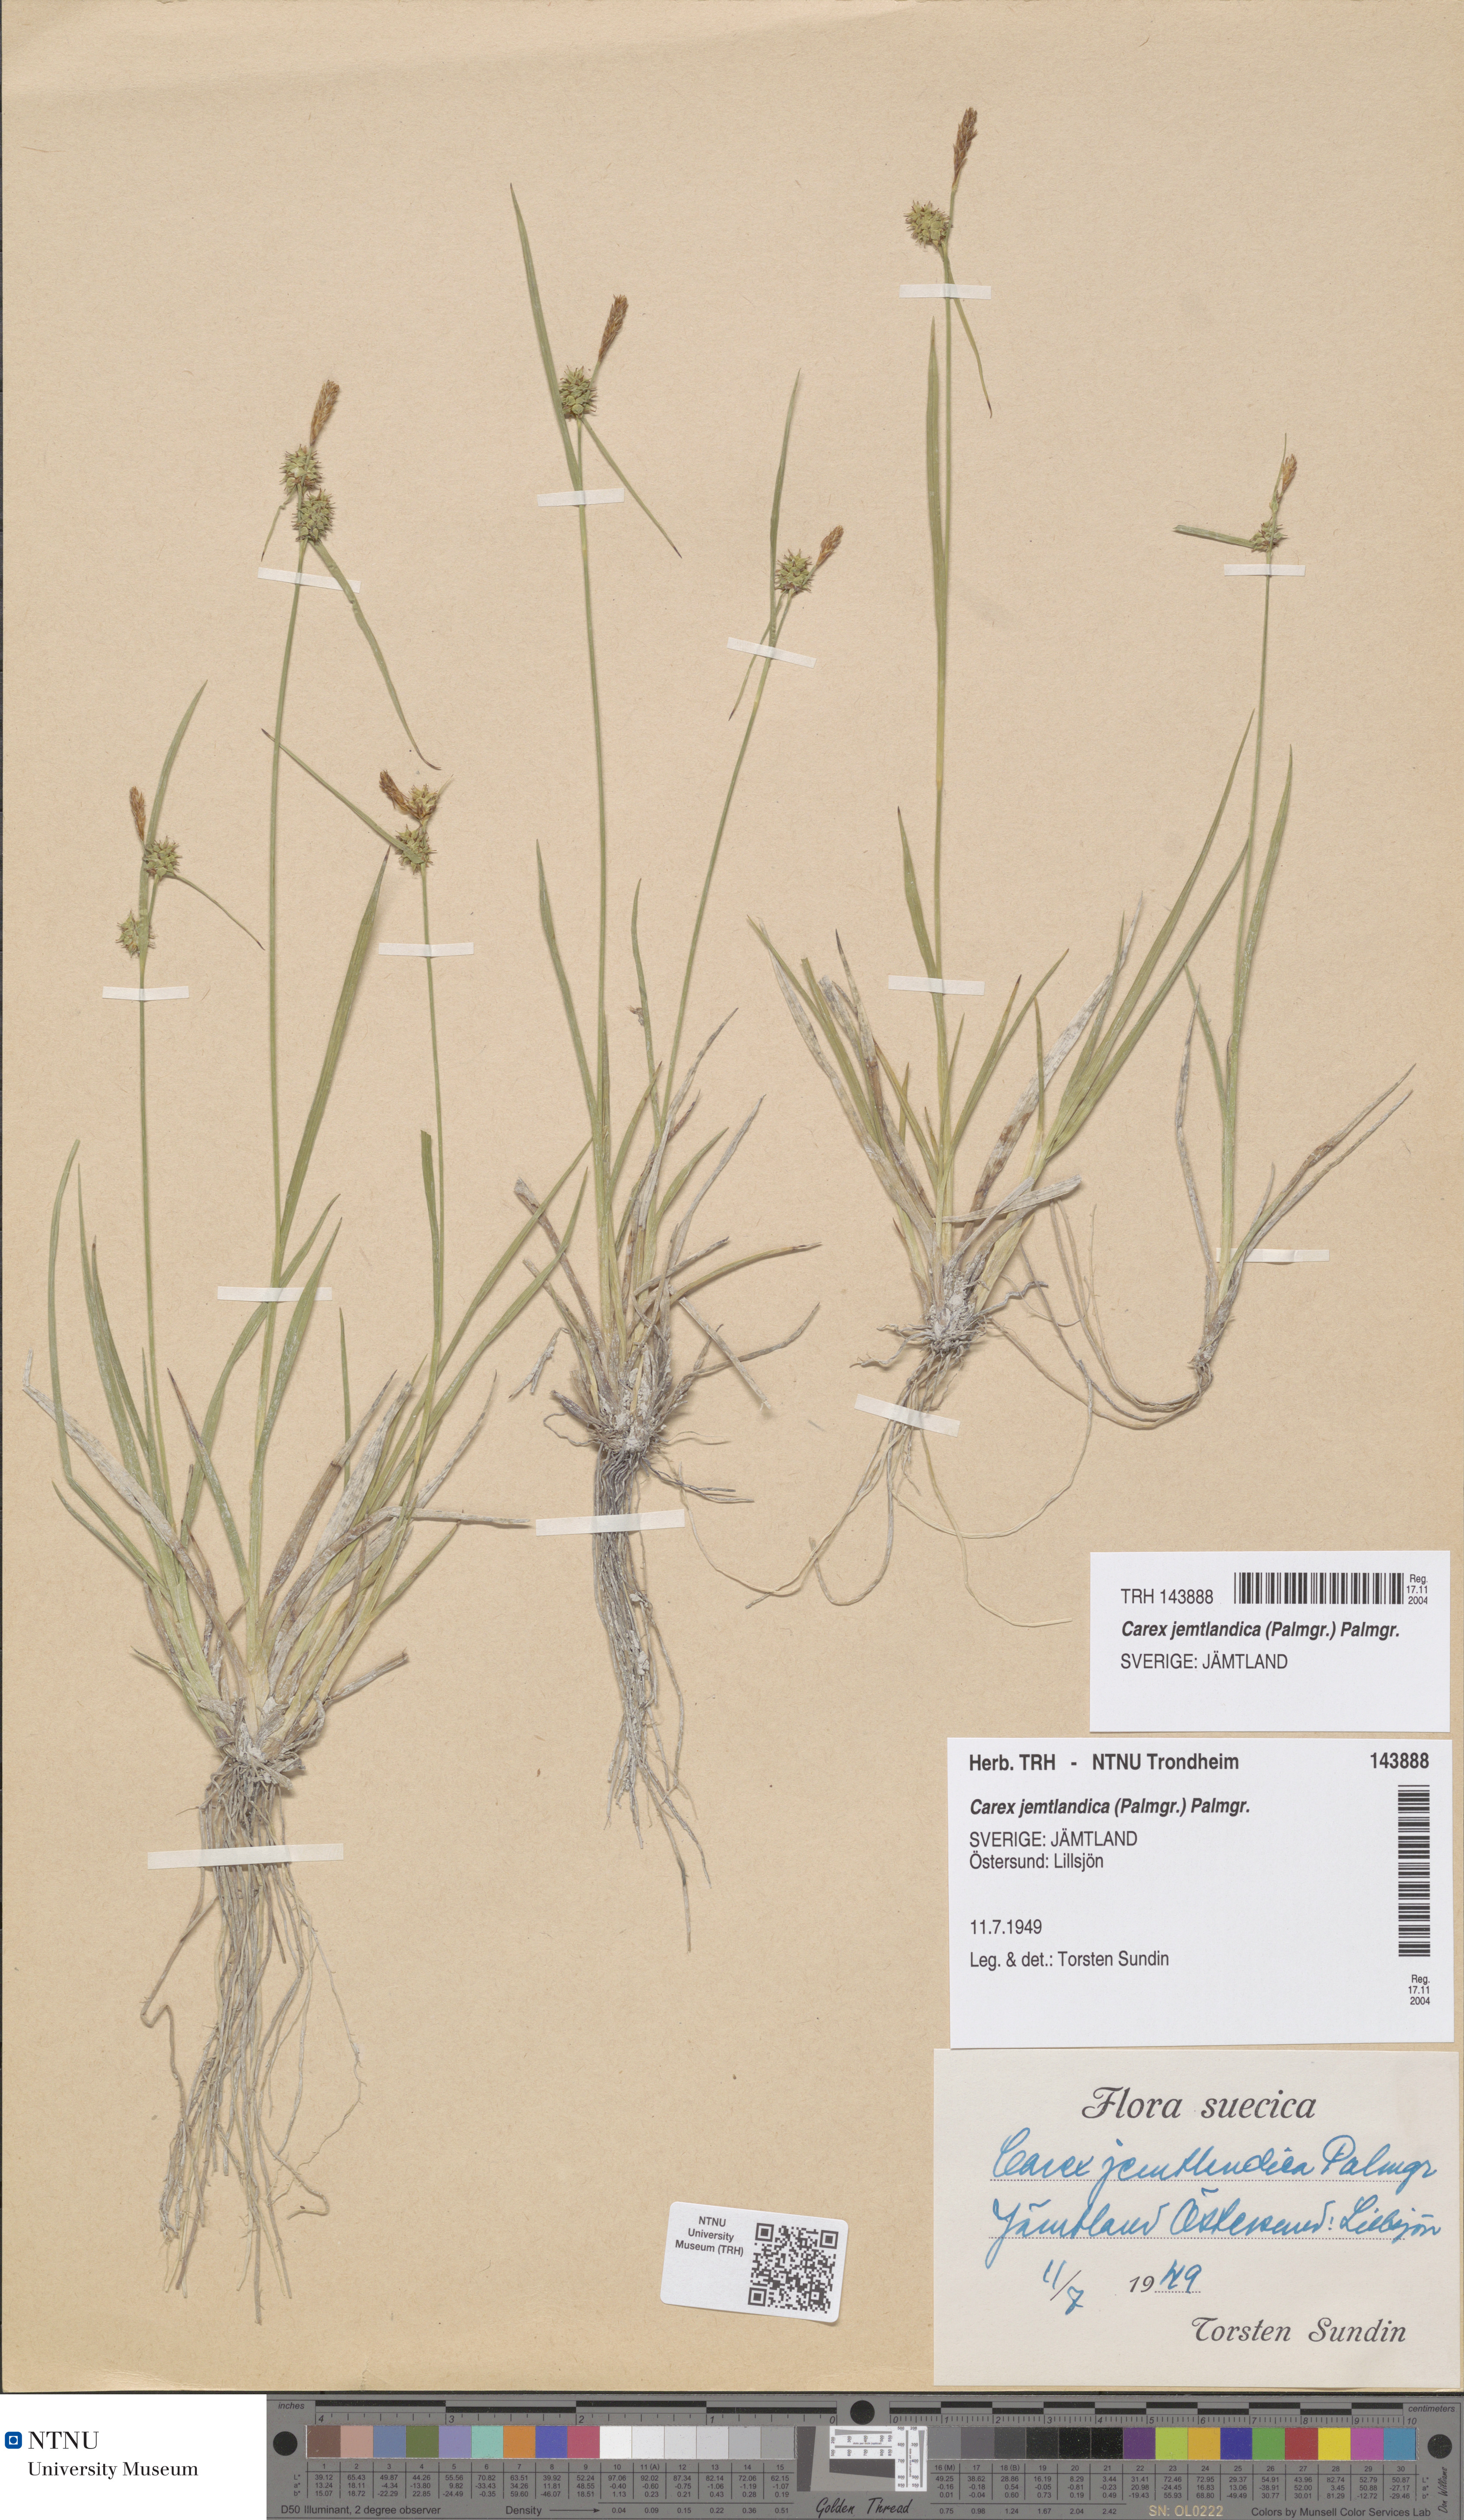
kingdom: Plantae
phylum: Tracheophyta
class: Liliopsida
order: Poales
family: Cyperaceae
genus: Carex
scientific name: Carex lepidocarpa
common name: Long-stalked yellow-sedge
